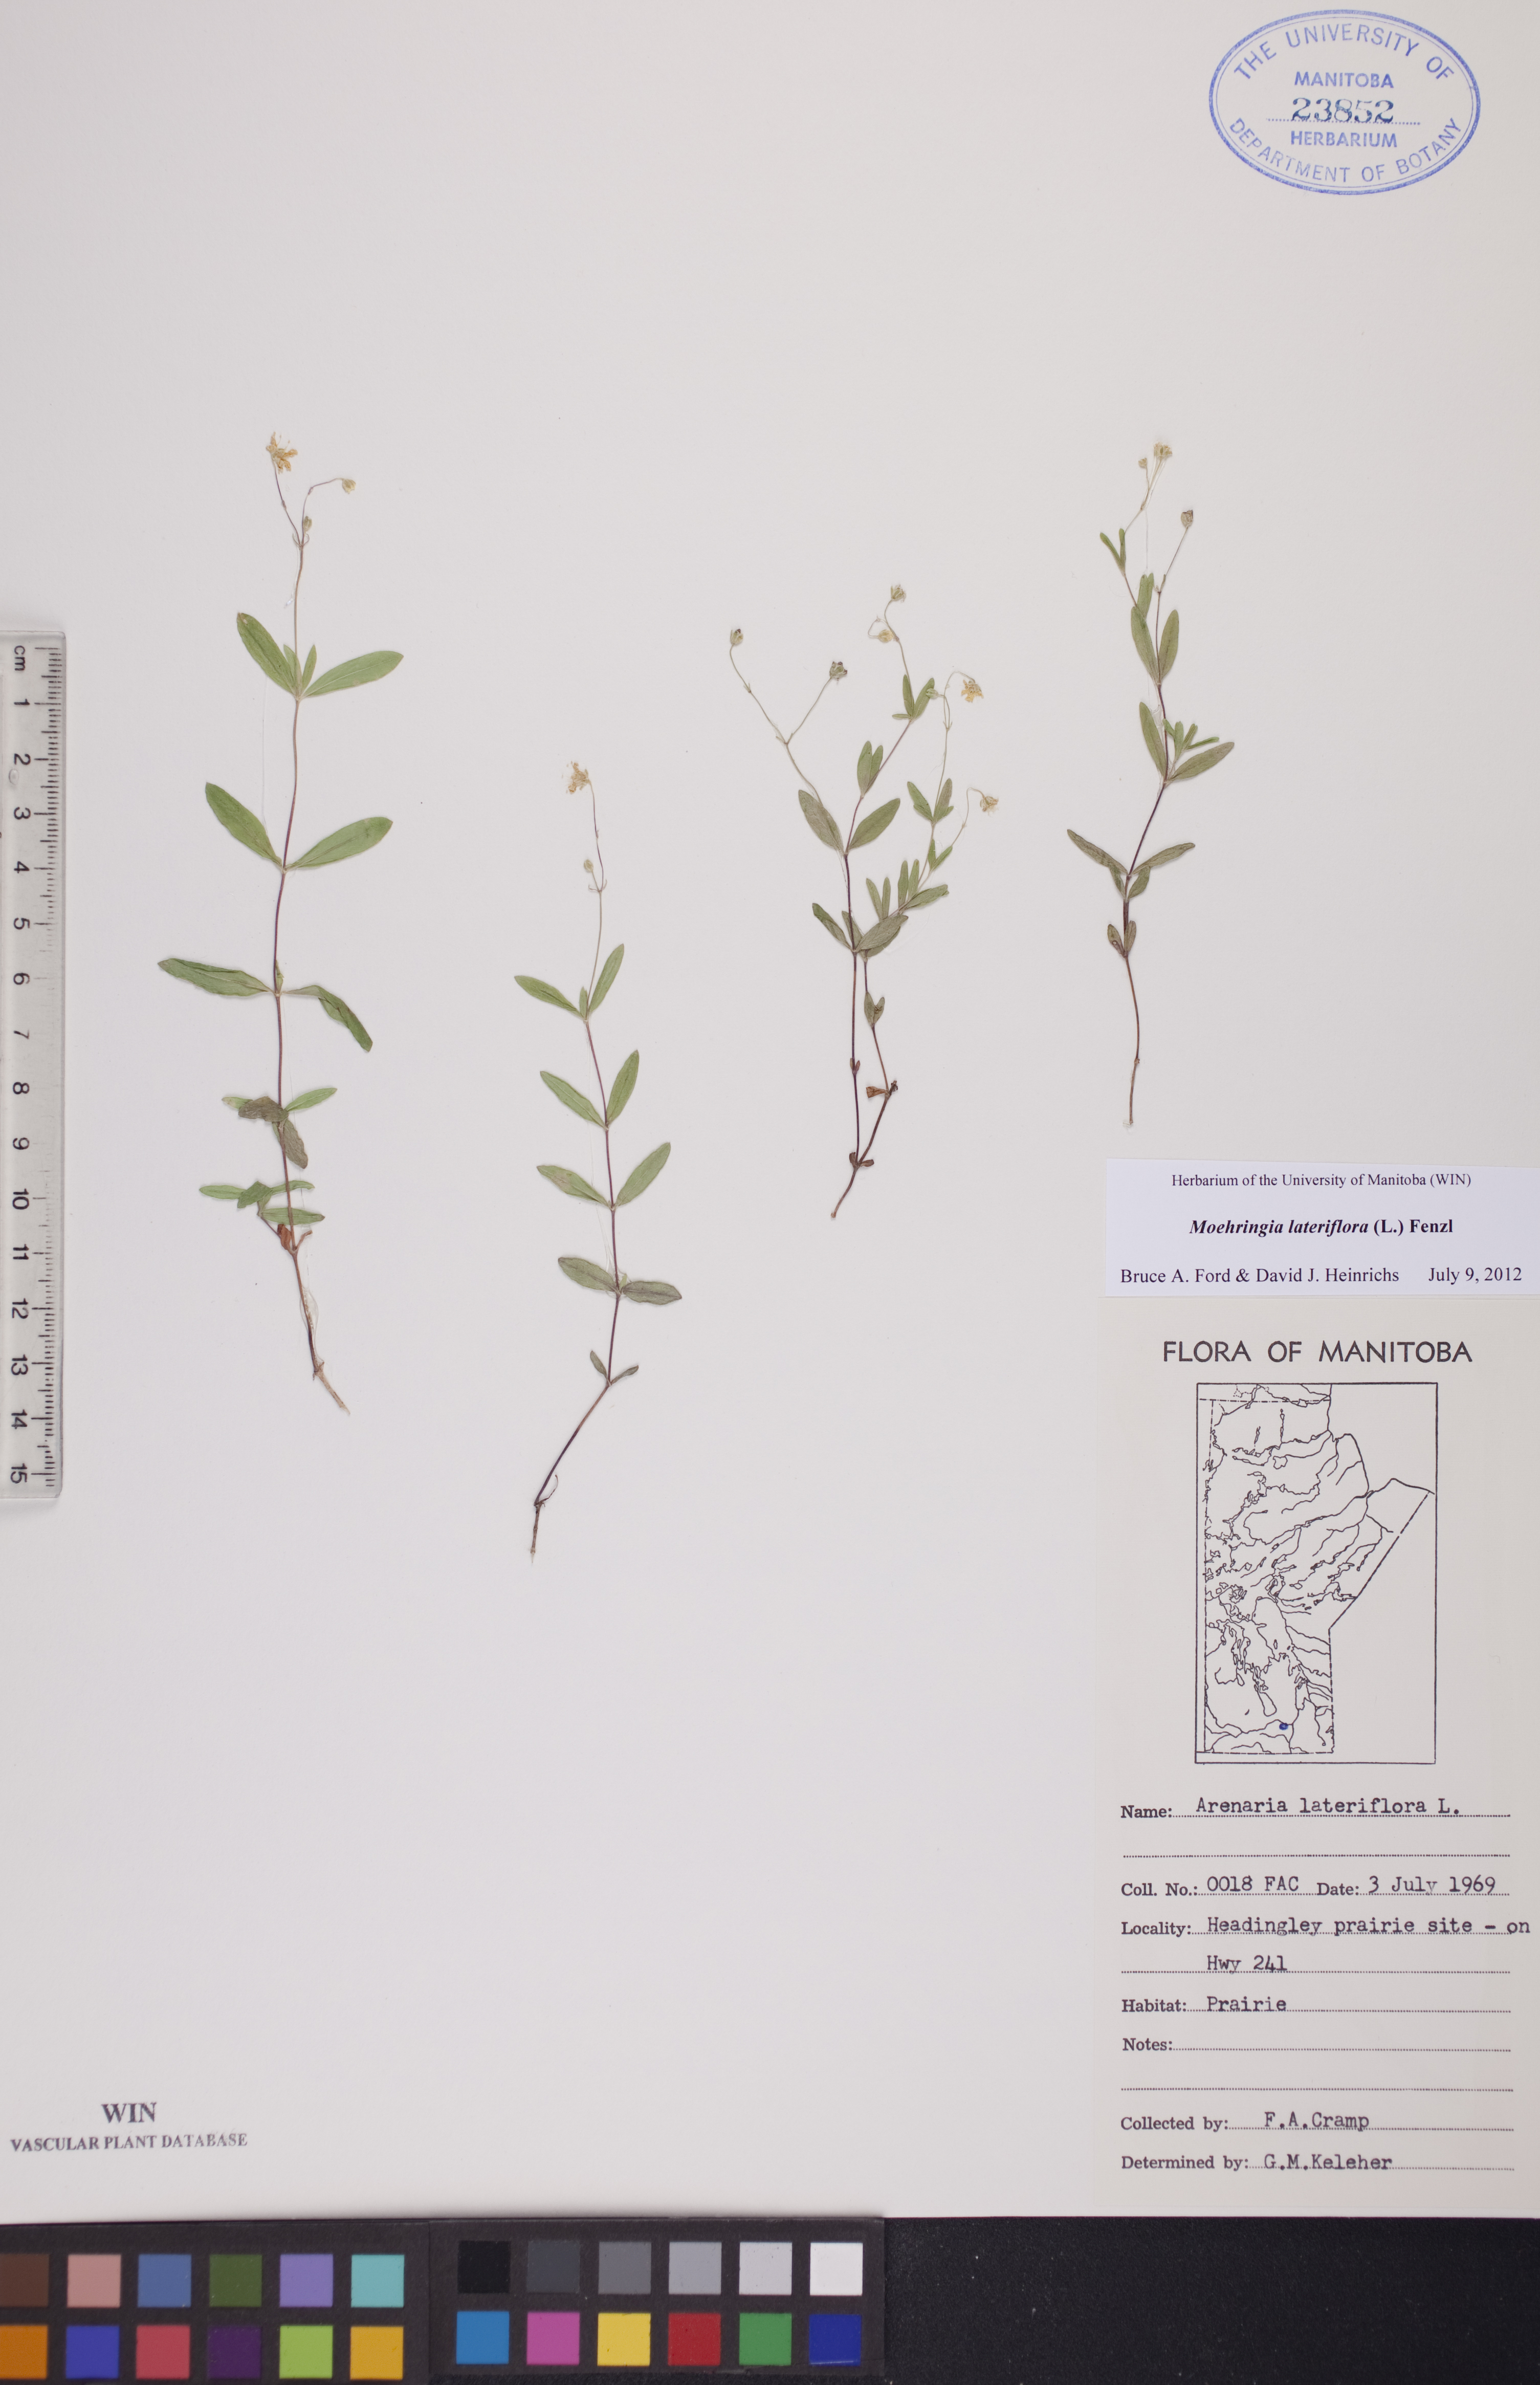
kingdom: Plantae
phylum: Tracheophyta
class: Magnoliopsida
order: Caryophyllales
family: Caryophyllaceae
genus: Moehringia
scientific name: Moehringia lateriflora
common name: Blunt-leaved sandwort
